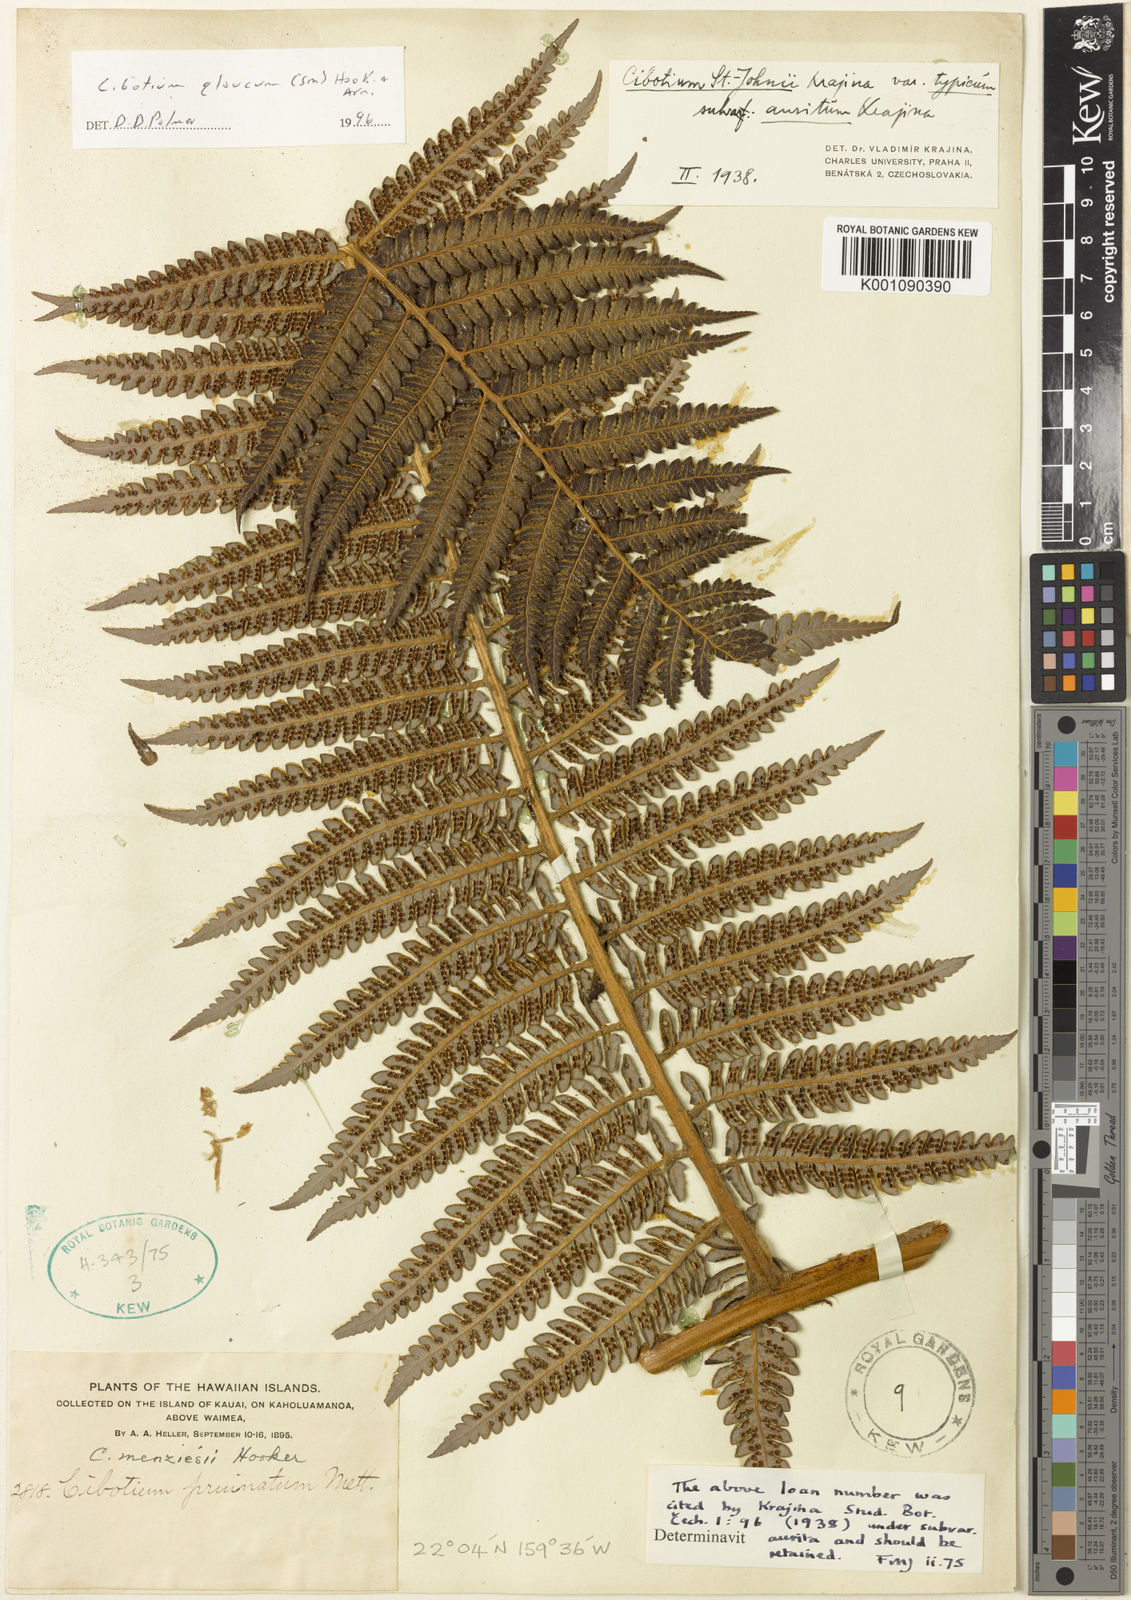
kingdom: Plantae
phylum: Tracheophyta
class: Polypodiopsida
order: Cyatheales
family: Cibotiaceae
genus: Cibotium
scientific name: Cibotium glaucum
